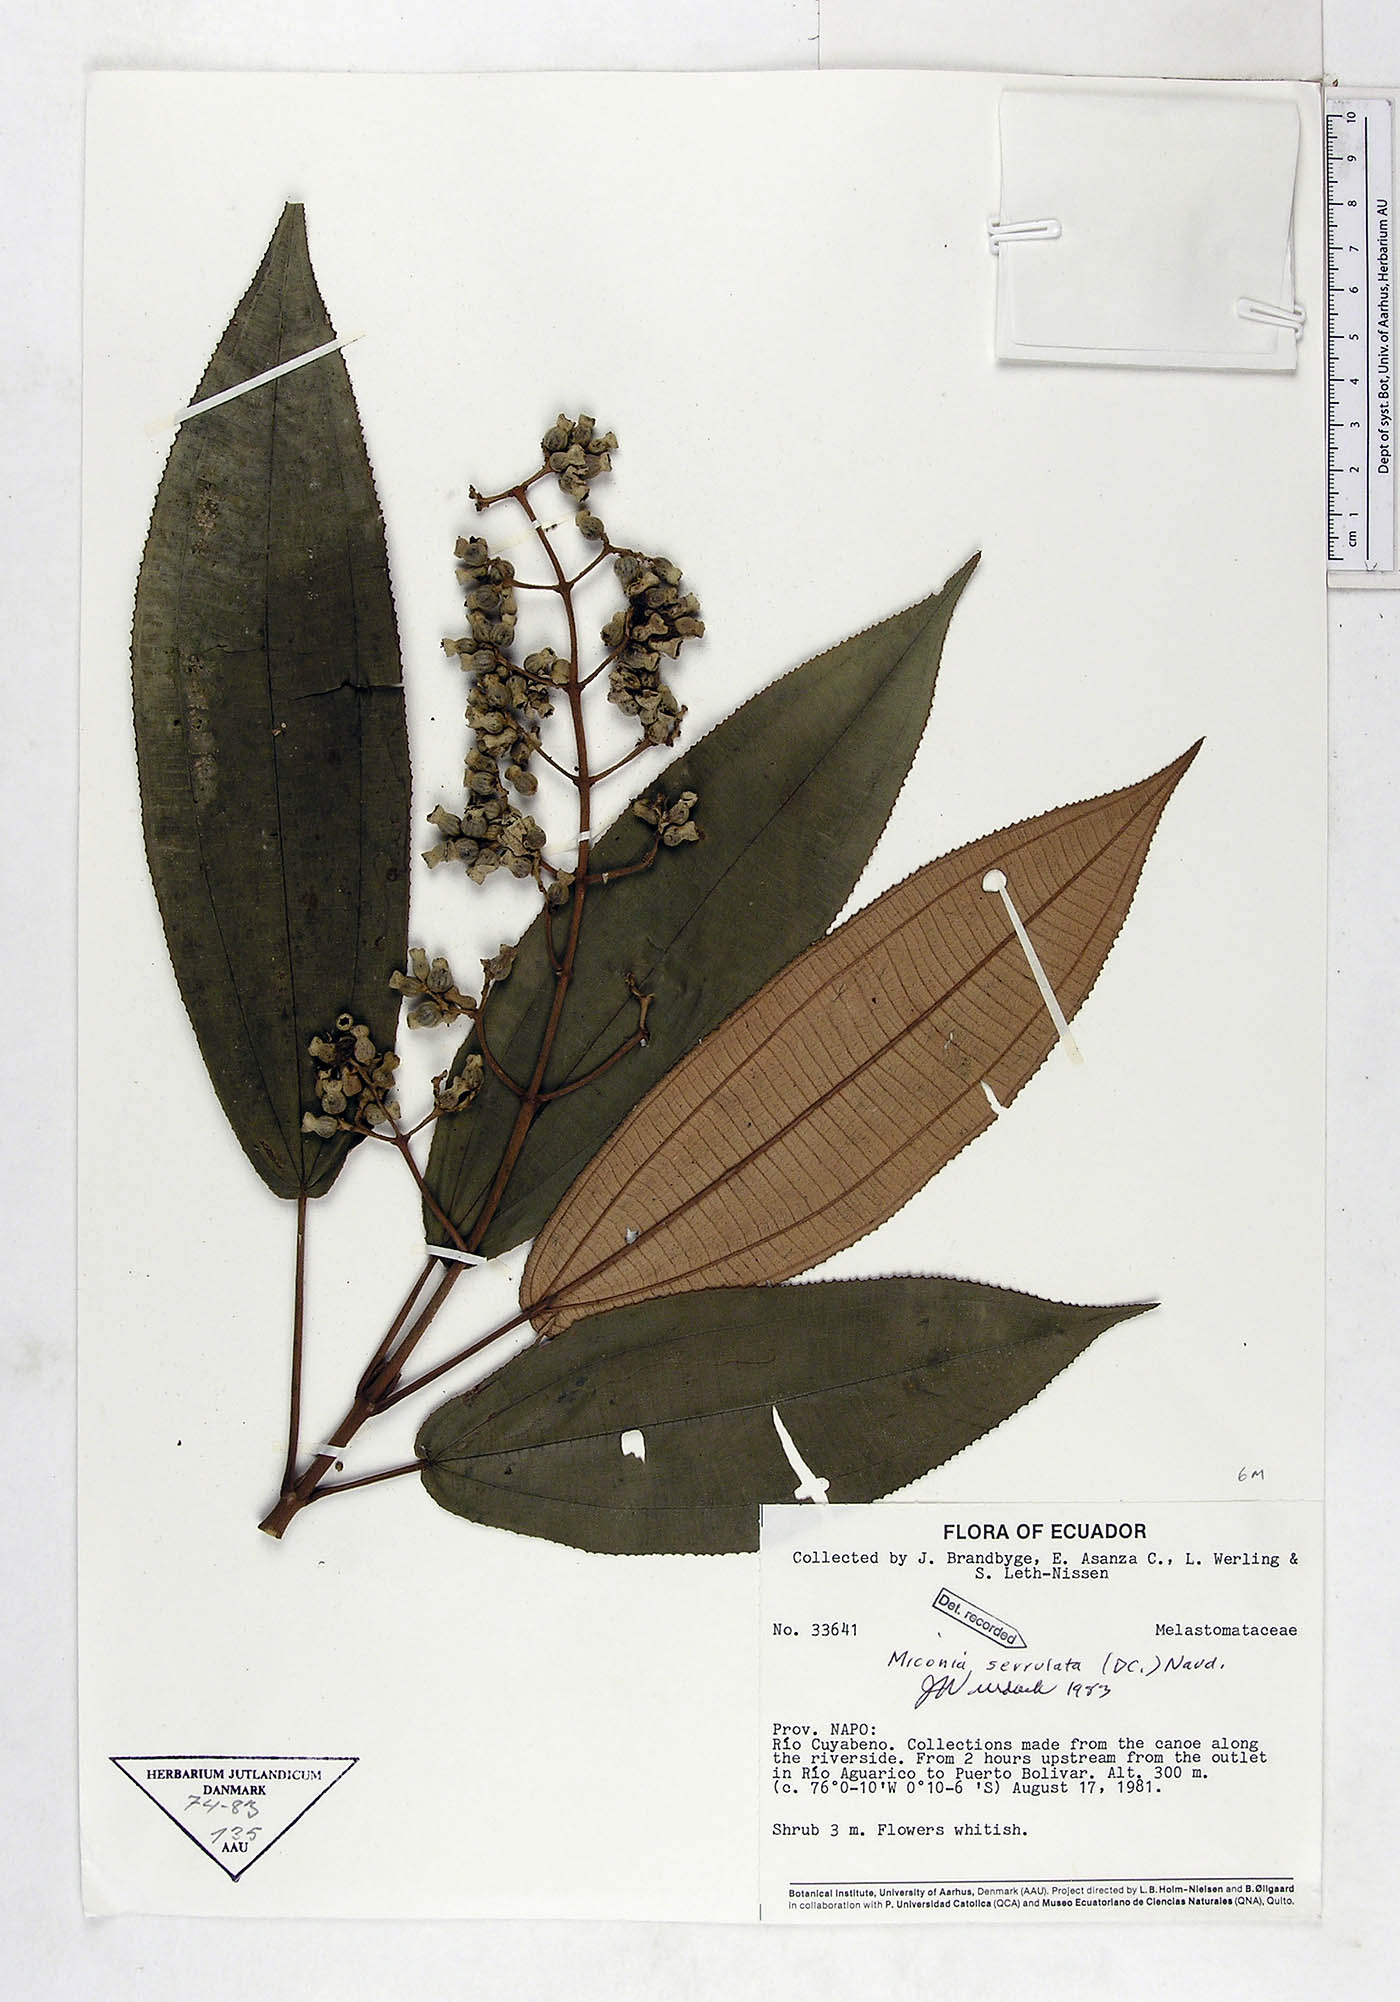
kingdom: Plantae
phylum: Tracheophyta
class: Magnoliopsida
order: Myrtales
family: Melastomataceae
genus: Miconia
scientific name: Miconia serrulata
